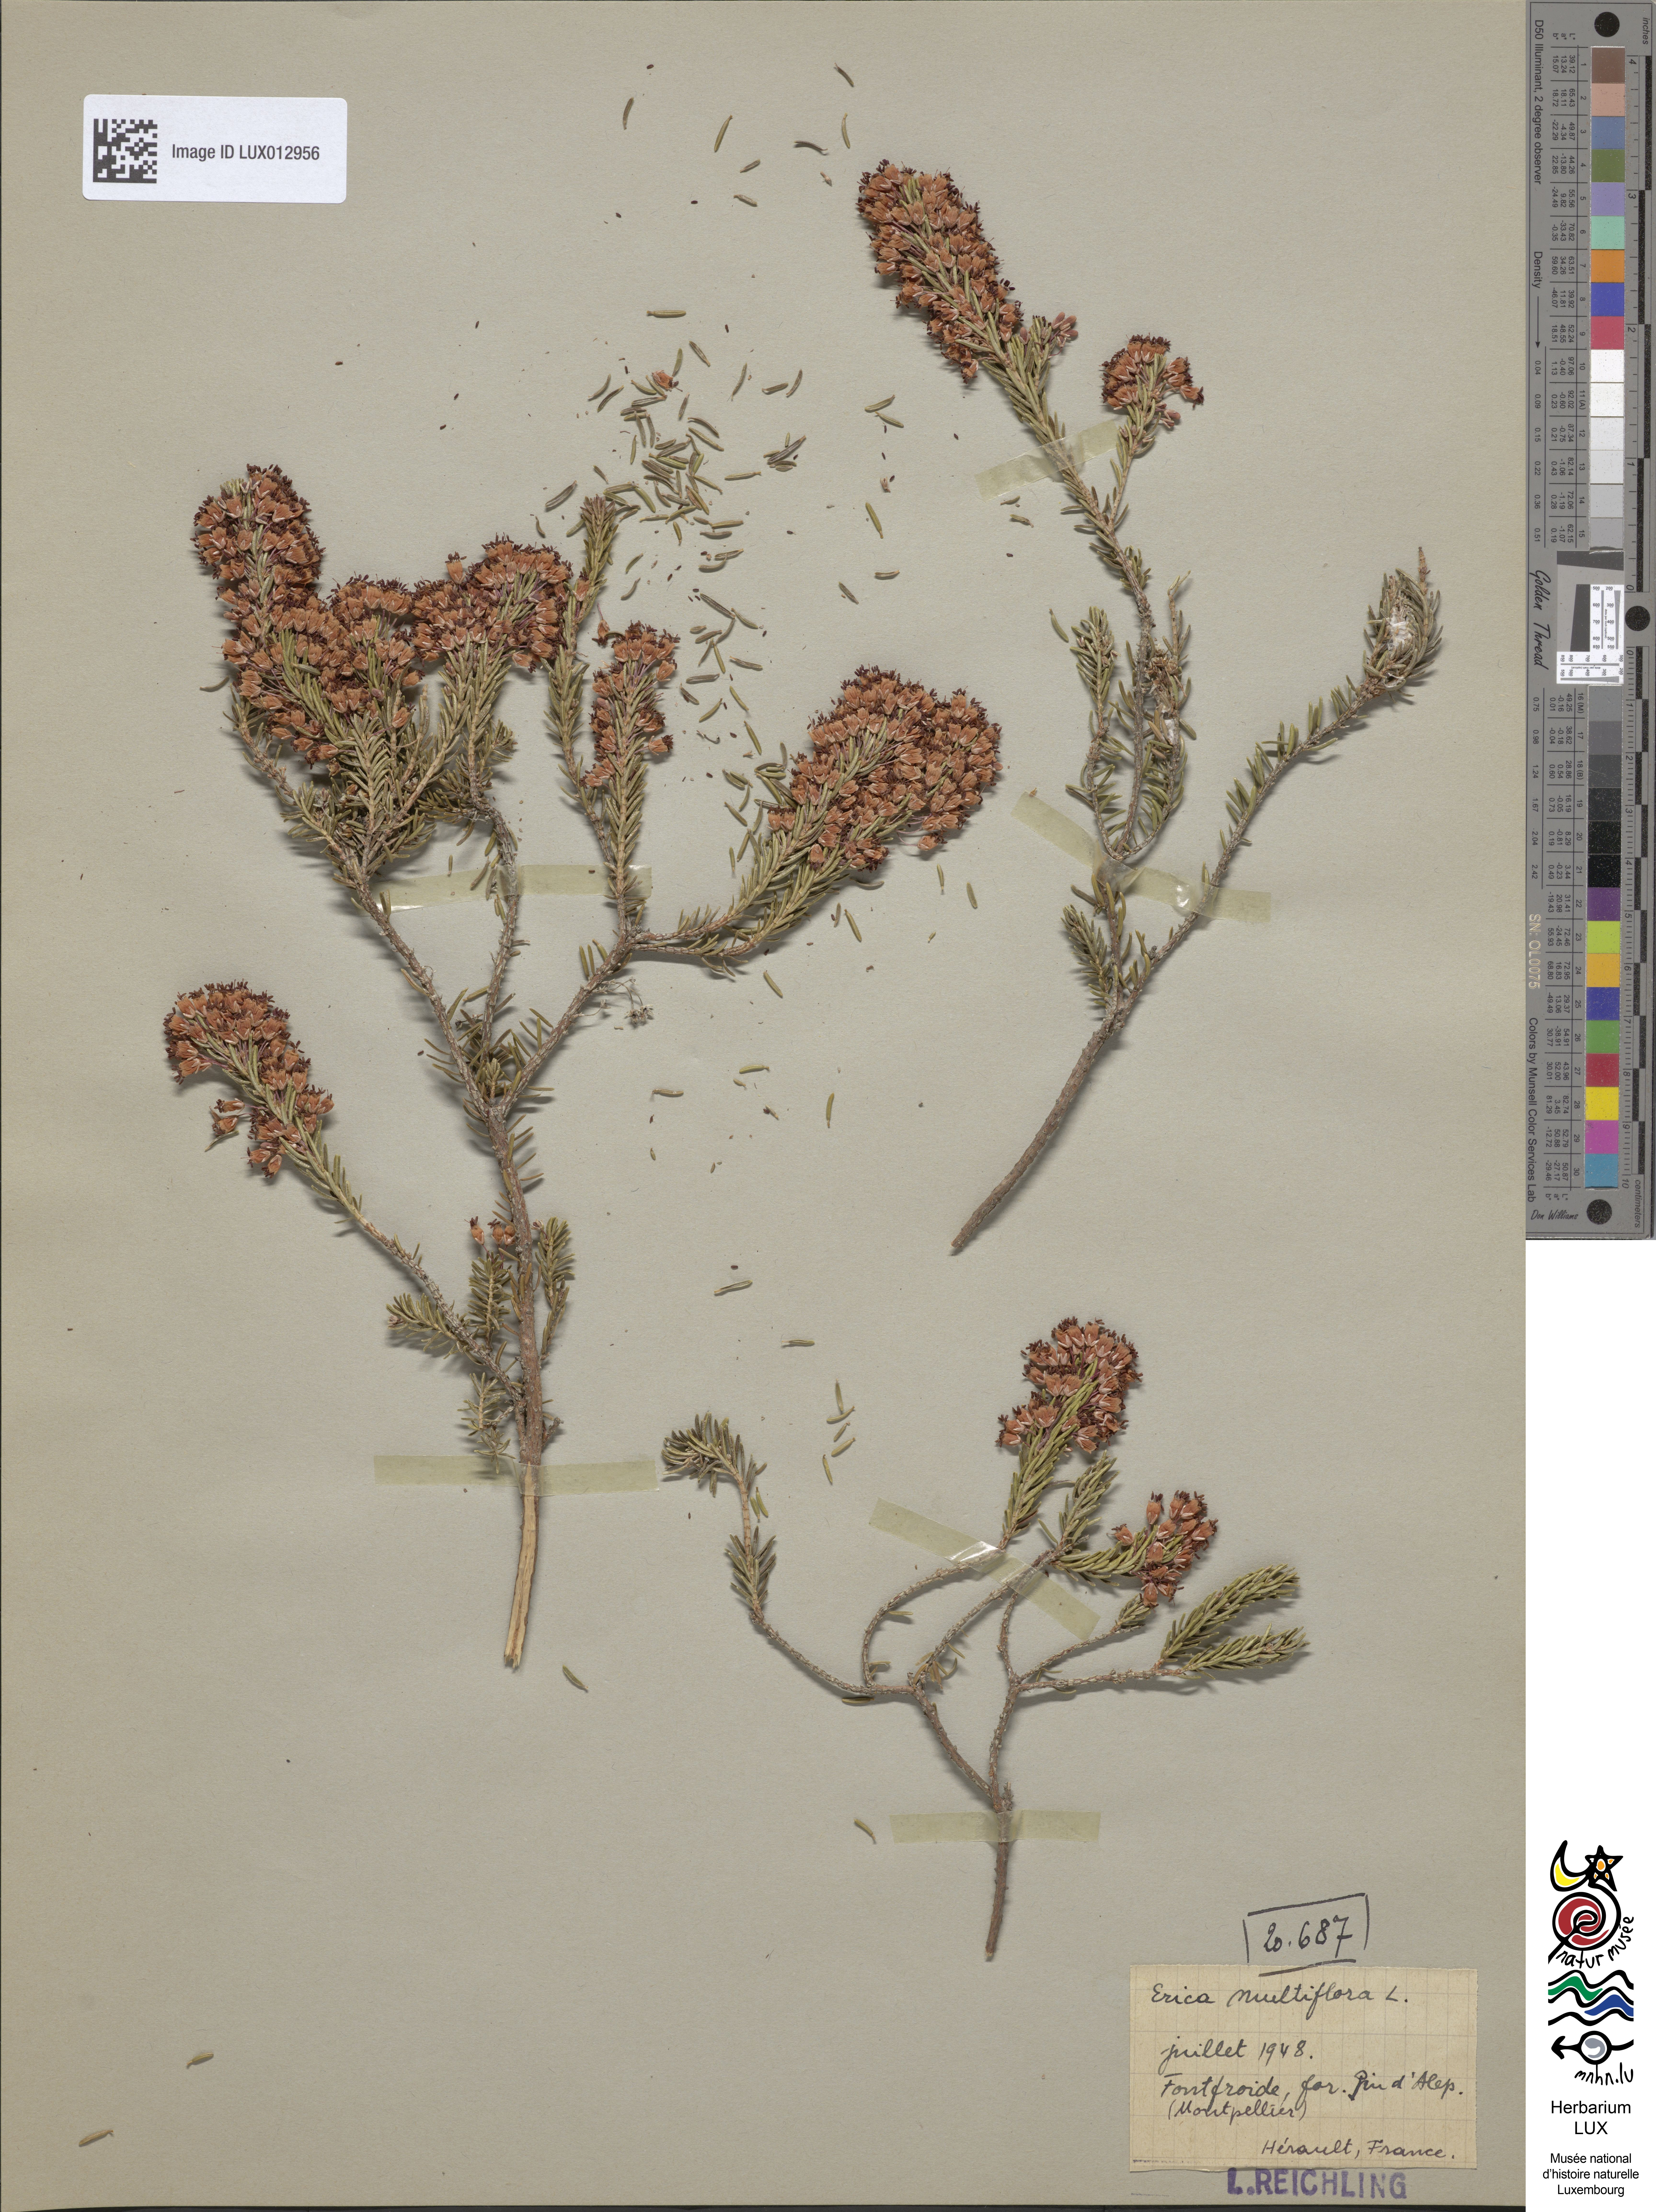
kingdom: Plantae
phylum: Tracheophyta
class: Magnoliopsida
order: Ericales
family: Ericaceae
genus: Erica
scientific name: Erica multiflora
